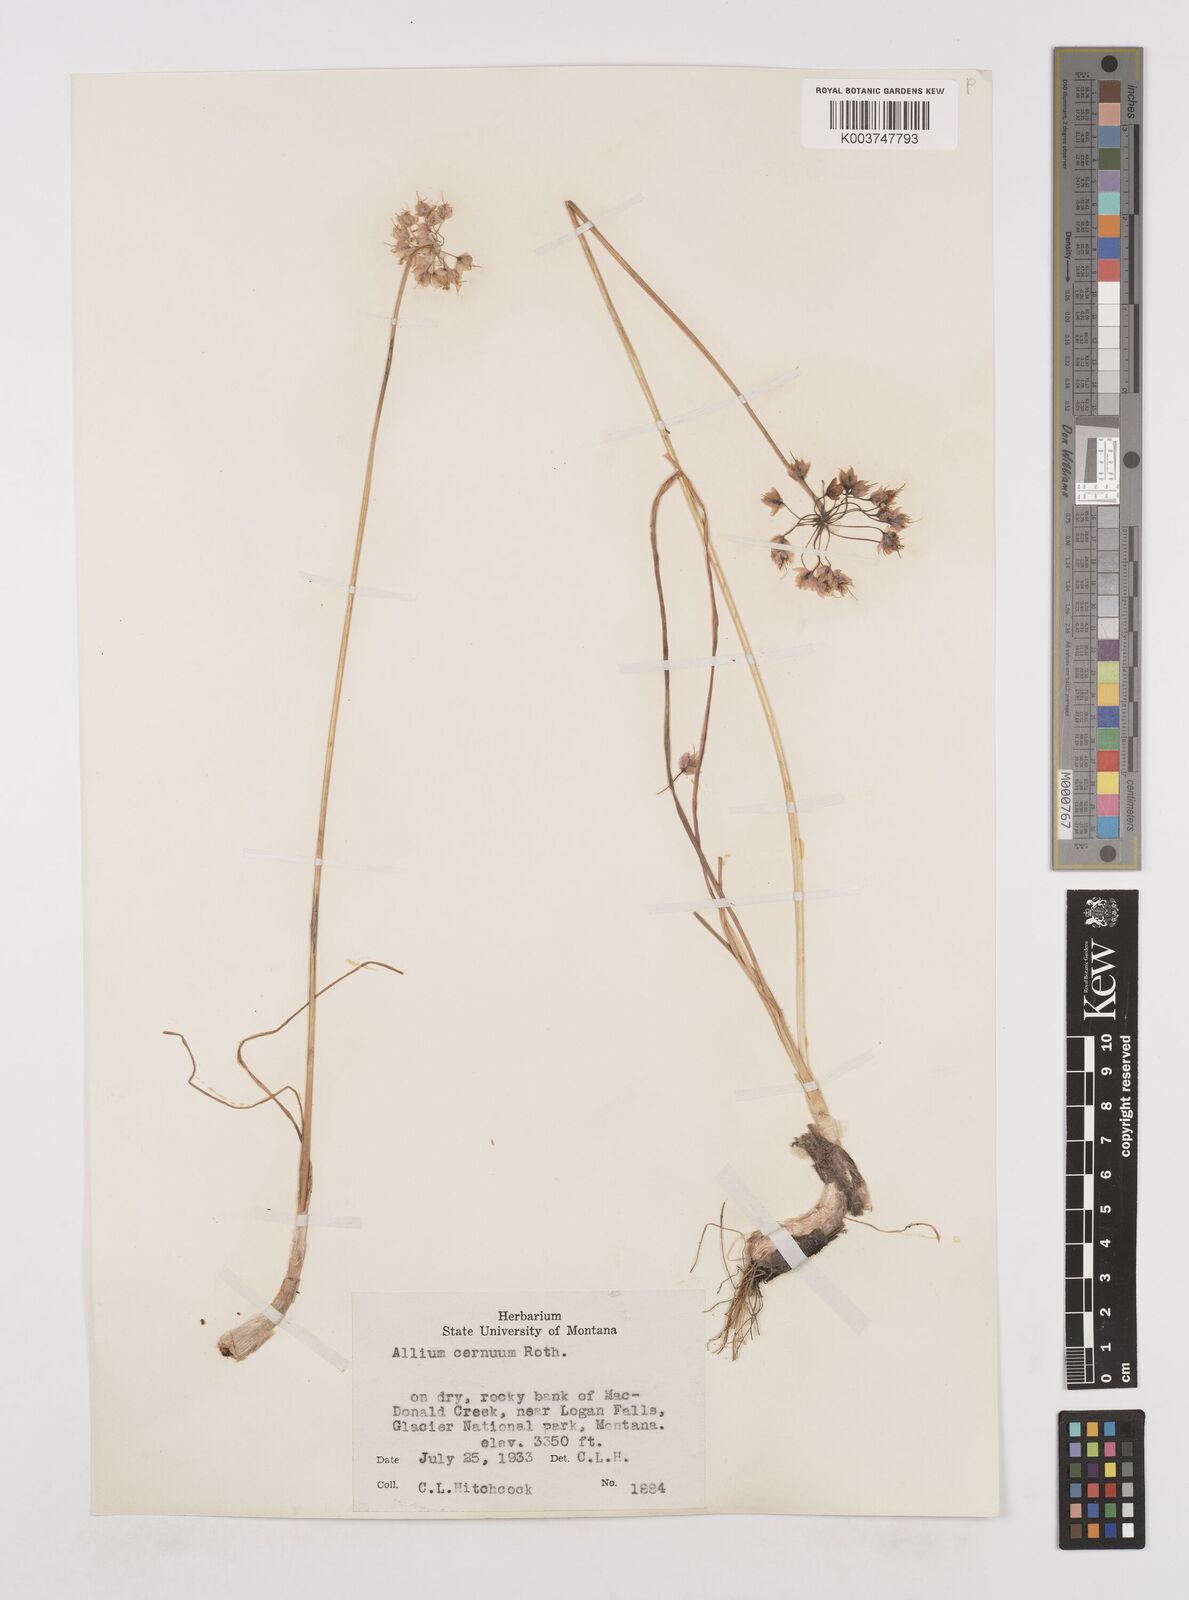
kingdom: Plantae
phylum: Tracheophyta
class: Liliopsida
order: Asparagales
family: Amaryllidaceae
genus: Allium
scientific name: Allium cernuum
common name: Nodding onion
